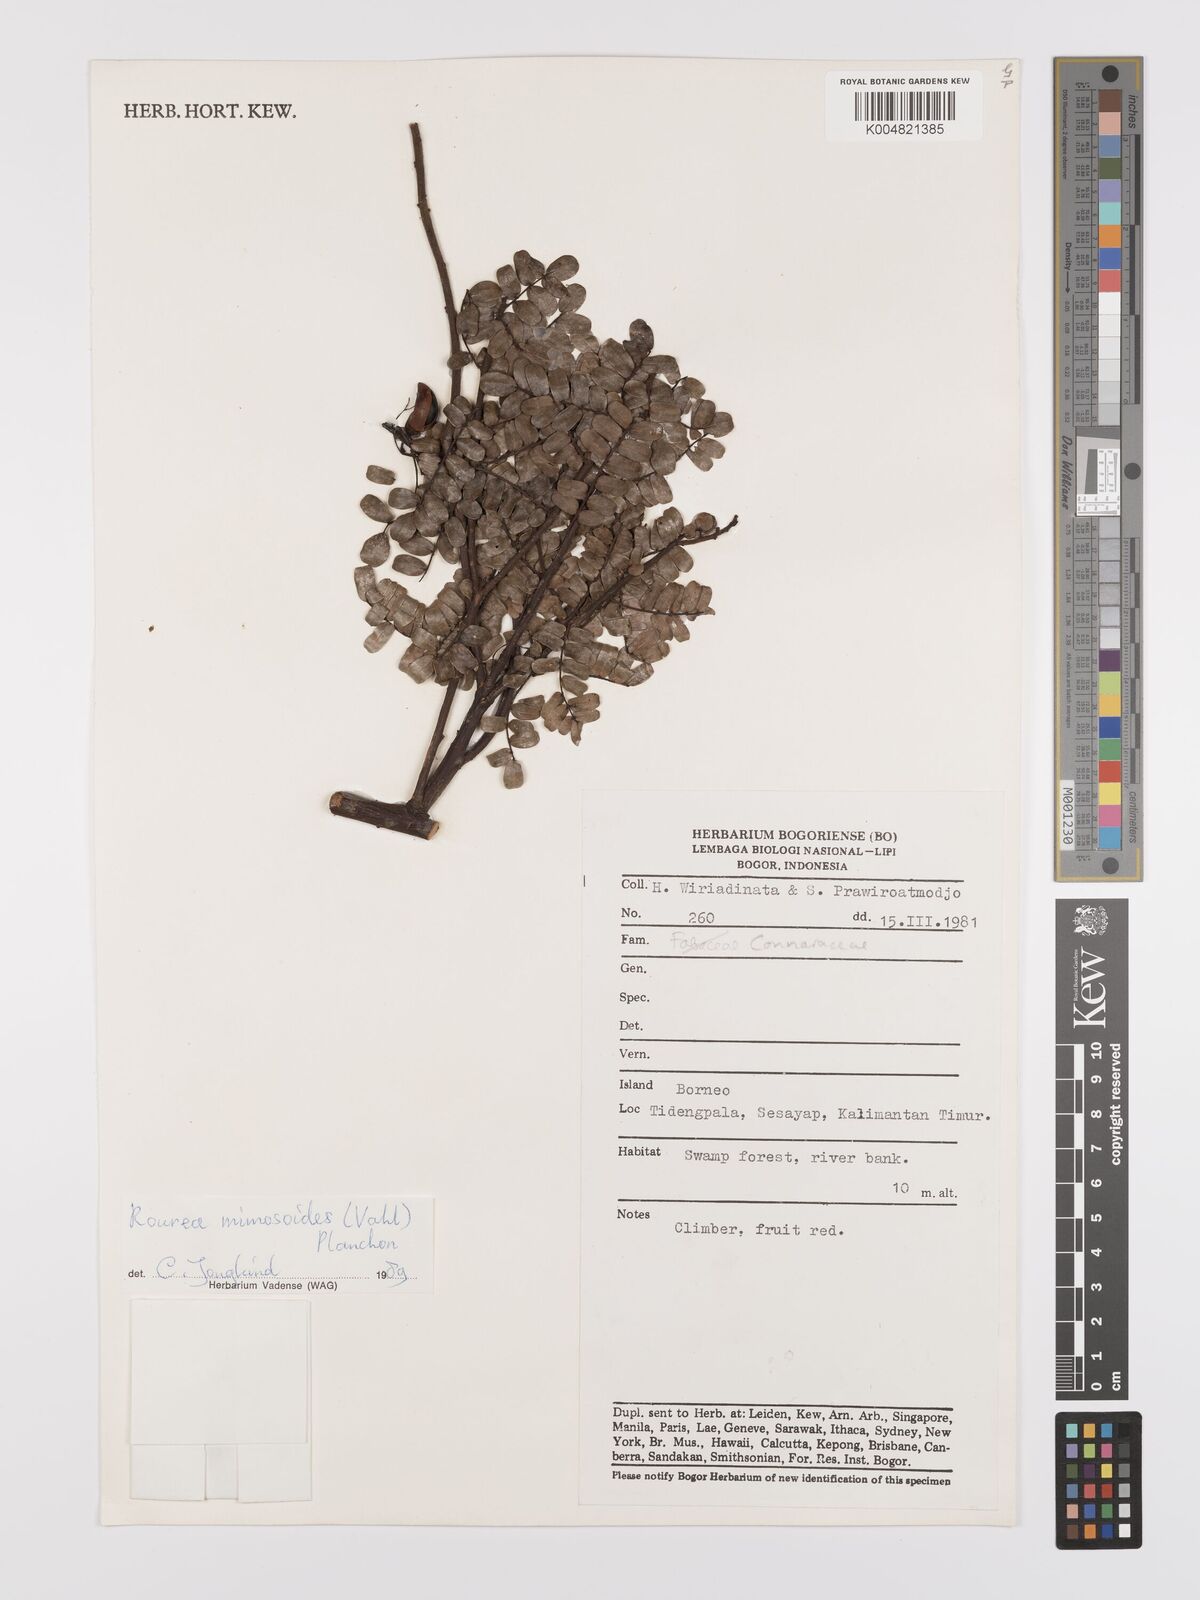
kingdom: Plantae
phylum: Tracheophyta
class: Magnoliopsida
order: Oxalidales
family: Connaraceae
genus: Rourea
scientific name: Rourea mimosoides
